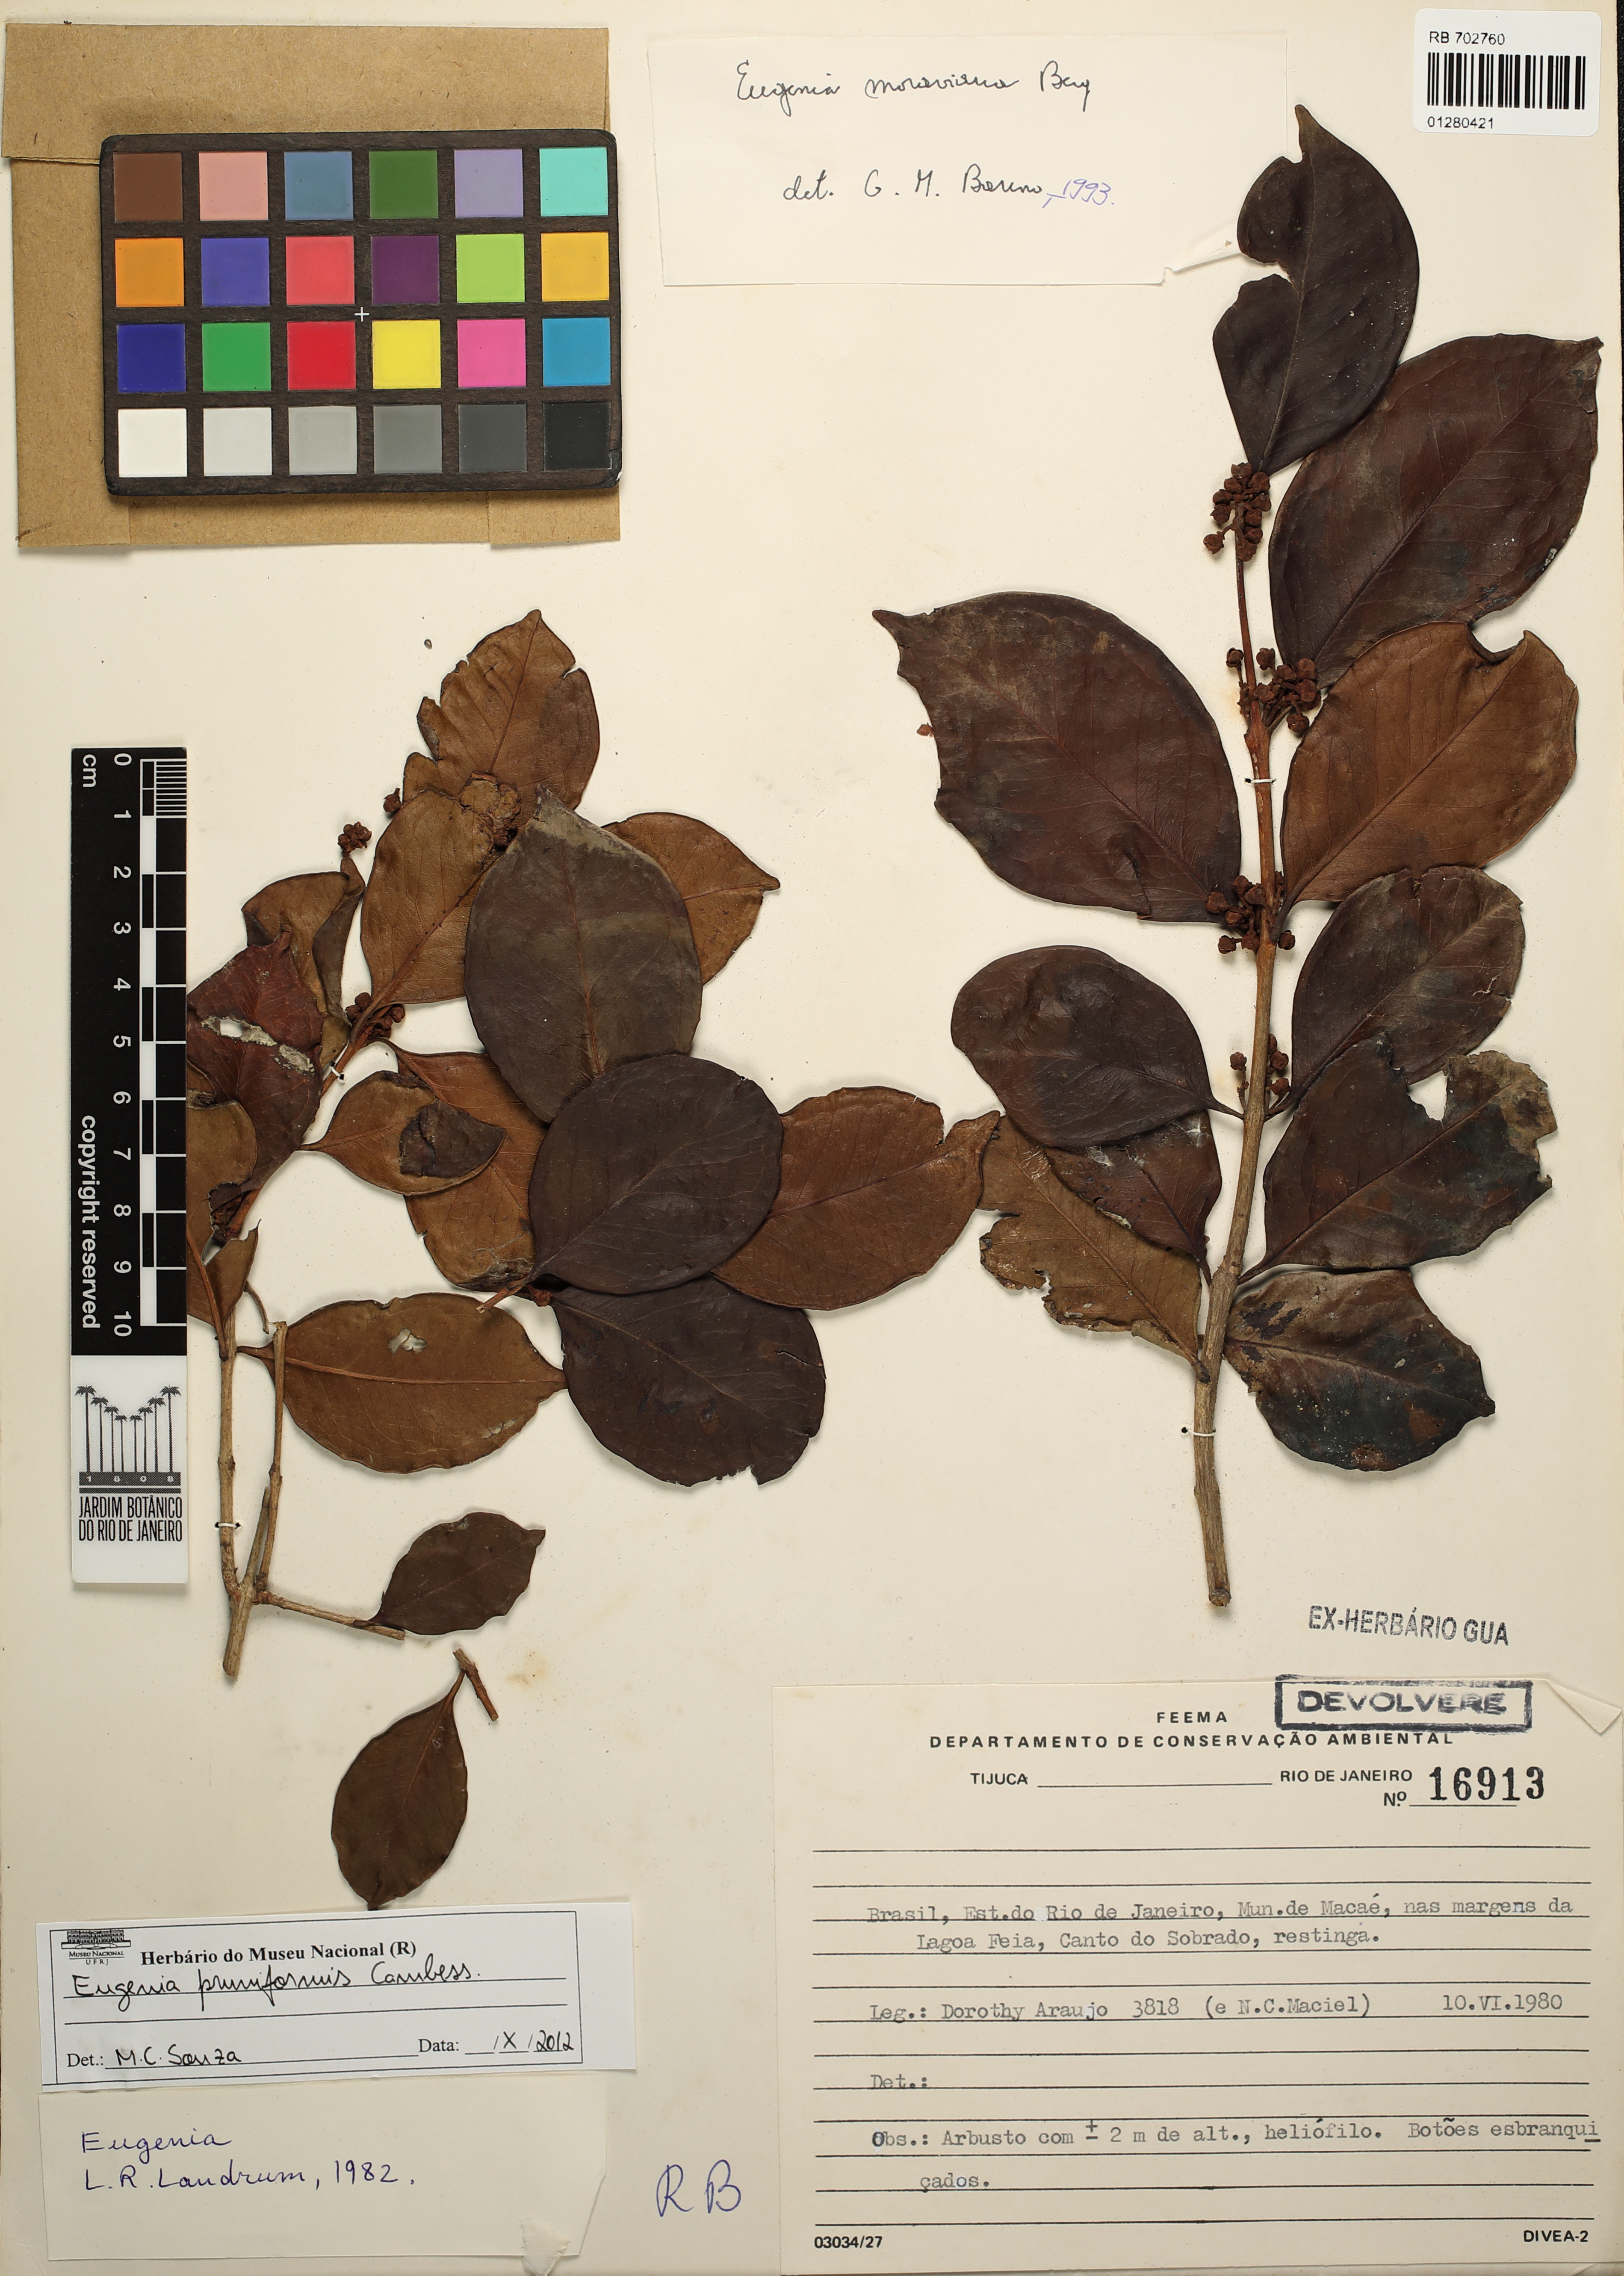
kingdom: Plantae
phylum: Tracheophyta
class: Magnoliopsida
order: Myrtales
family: Myrtaceae
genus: Eugenia
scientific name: Eugenia pruniformis
